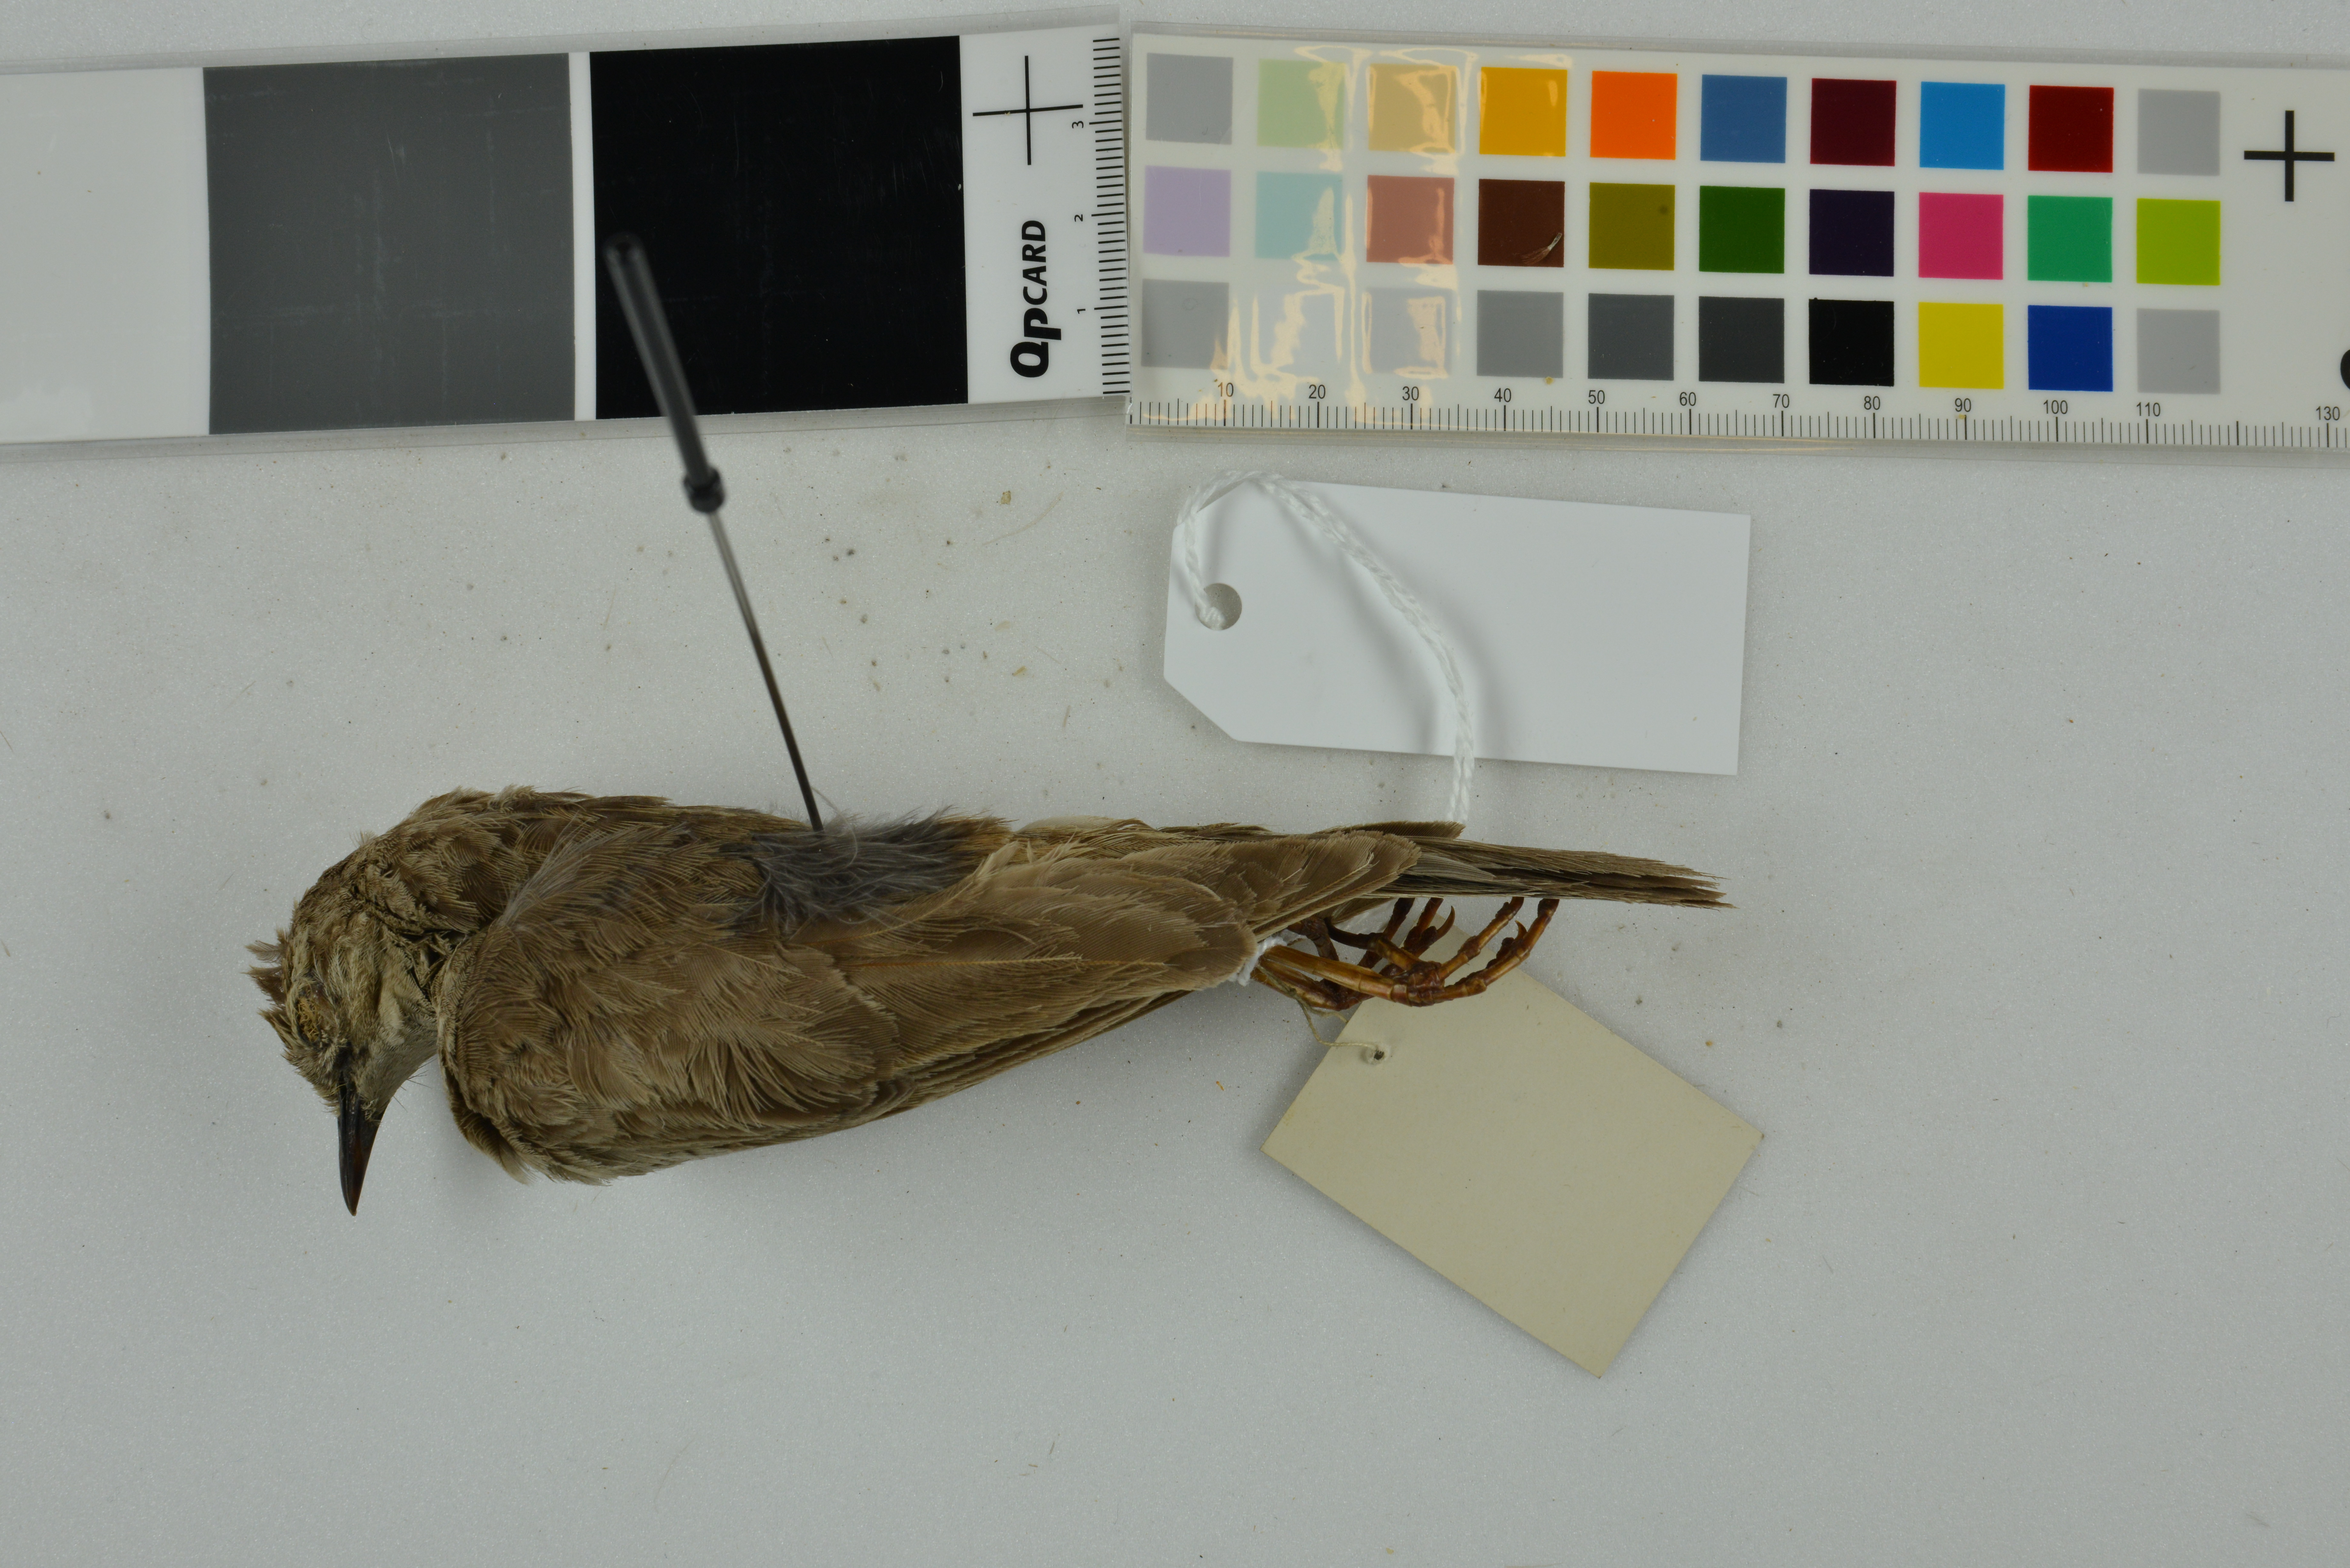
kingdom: Animalia
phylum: Chordata
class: Aves
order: Passeriformes
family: Locustellidae
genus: Megalurus
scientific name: Megalurus mathewsi
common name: Rufous songlark
